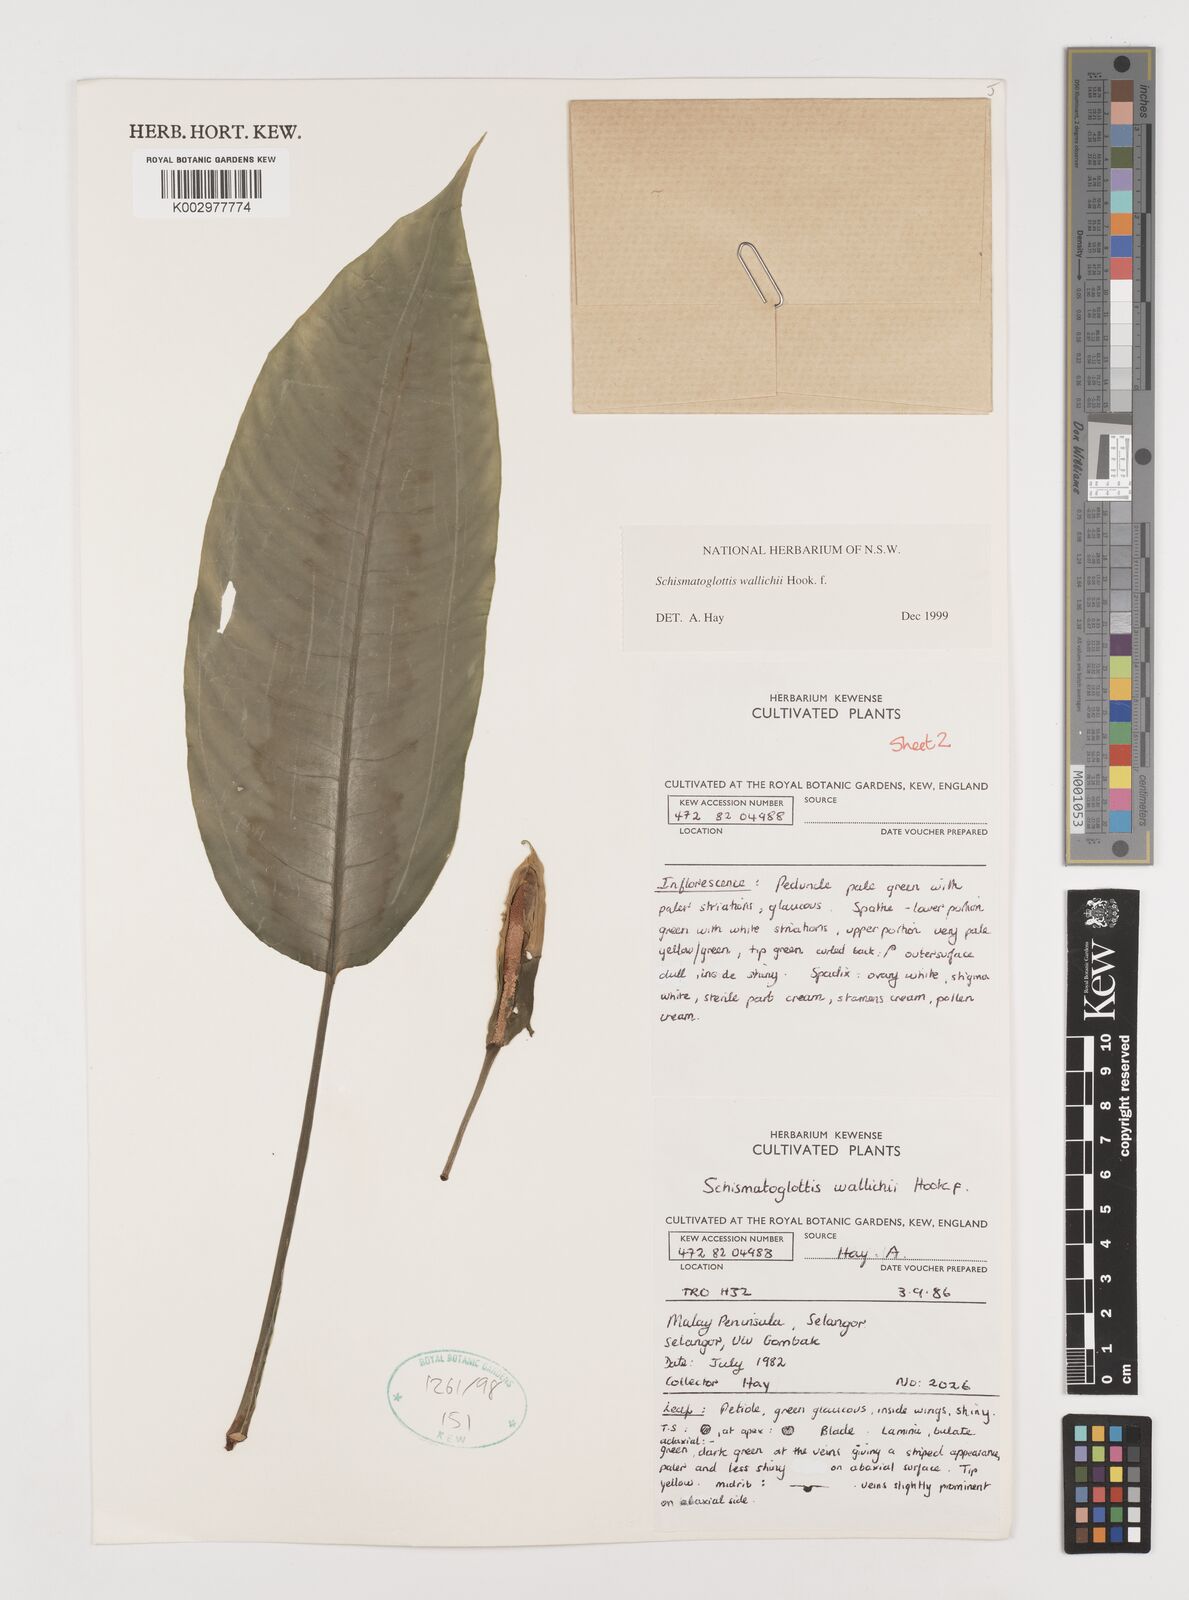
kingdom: Plantae
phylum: Tracheophyta
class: Liliopsida
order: Alismatales
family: Araceae
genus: Schismatoglottis
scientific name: Schismatoglottis wallichii
